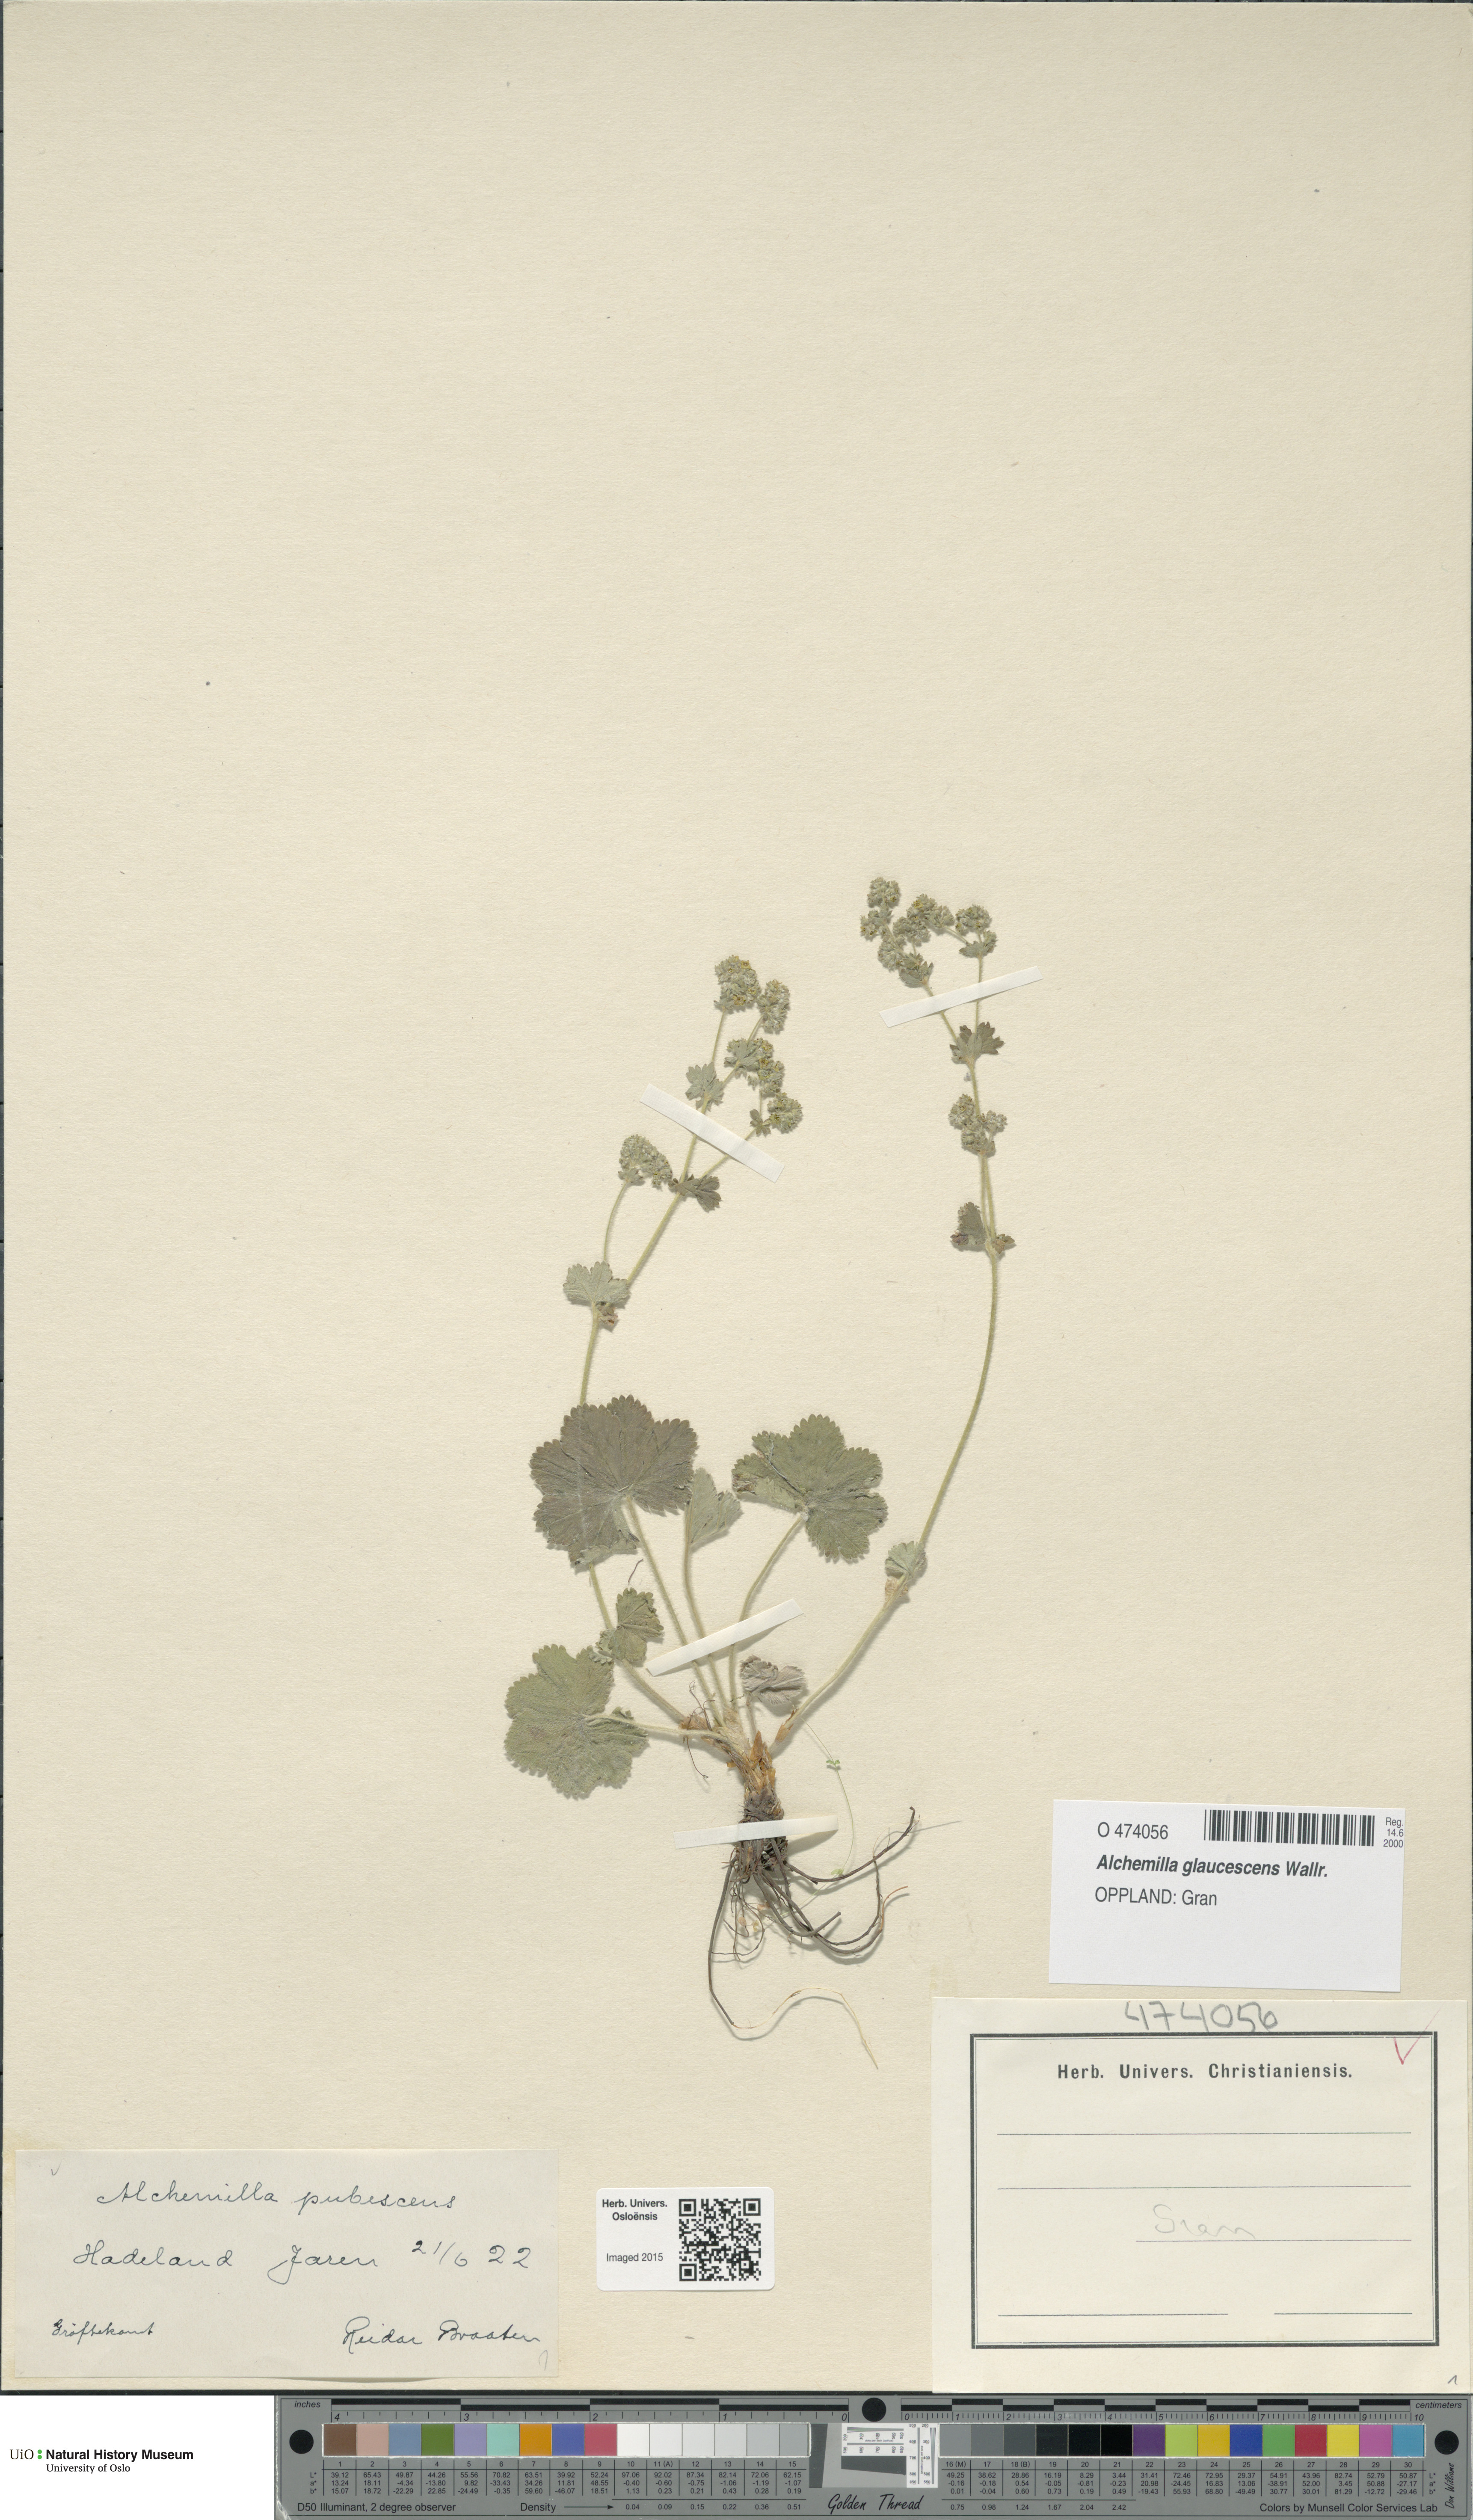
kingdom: Plantae
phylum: Tracheophyta
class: Magnoliopsida
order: Rosales
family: Rosaceae
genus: Alchemilla
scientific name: Alchemilla glaucescens
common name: Silky lady's mantle
